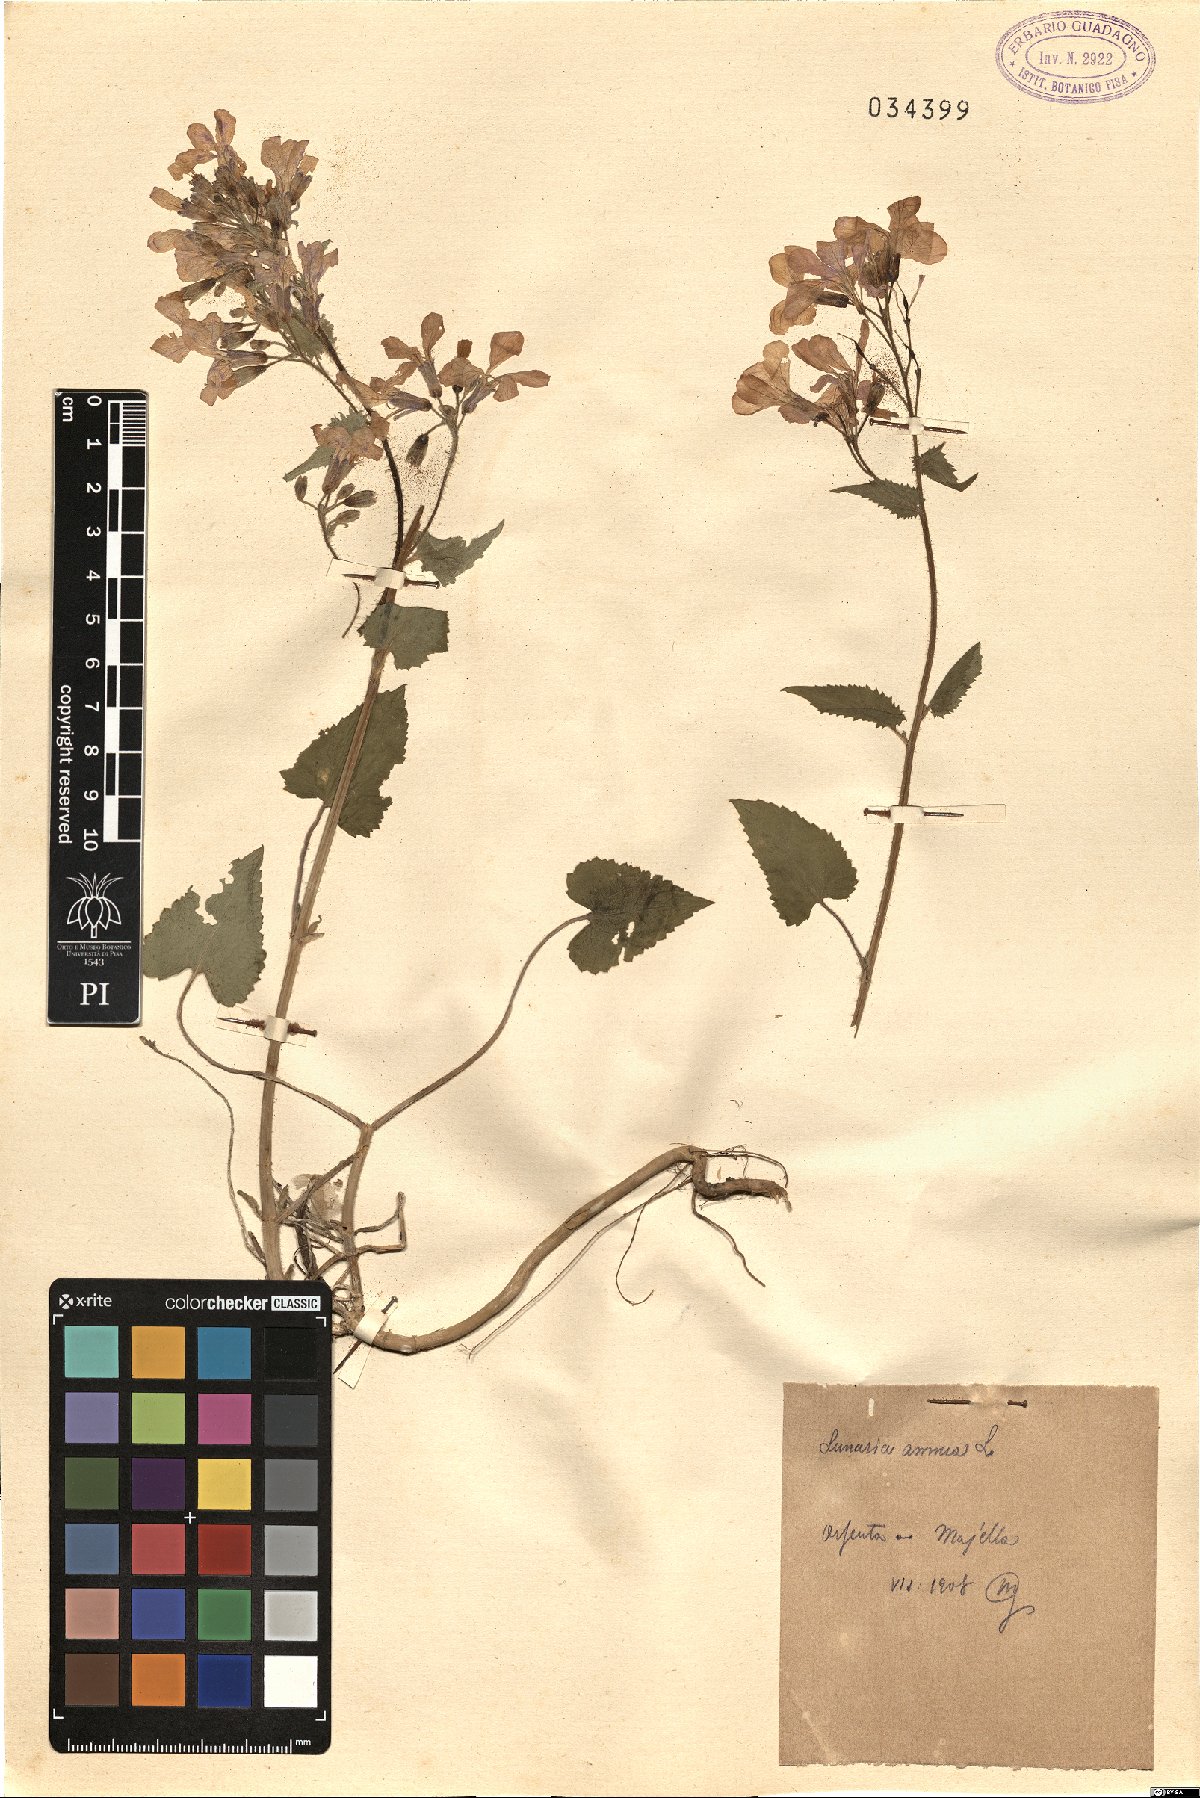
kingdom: Plantae
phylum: Tracheophyta
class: Magnoliopsida
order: Brassicales
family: Brassicaceae
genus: Lunaria
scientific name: Lunaria annua
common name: Honesty
